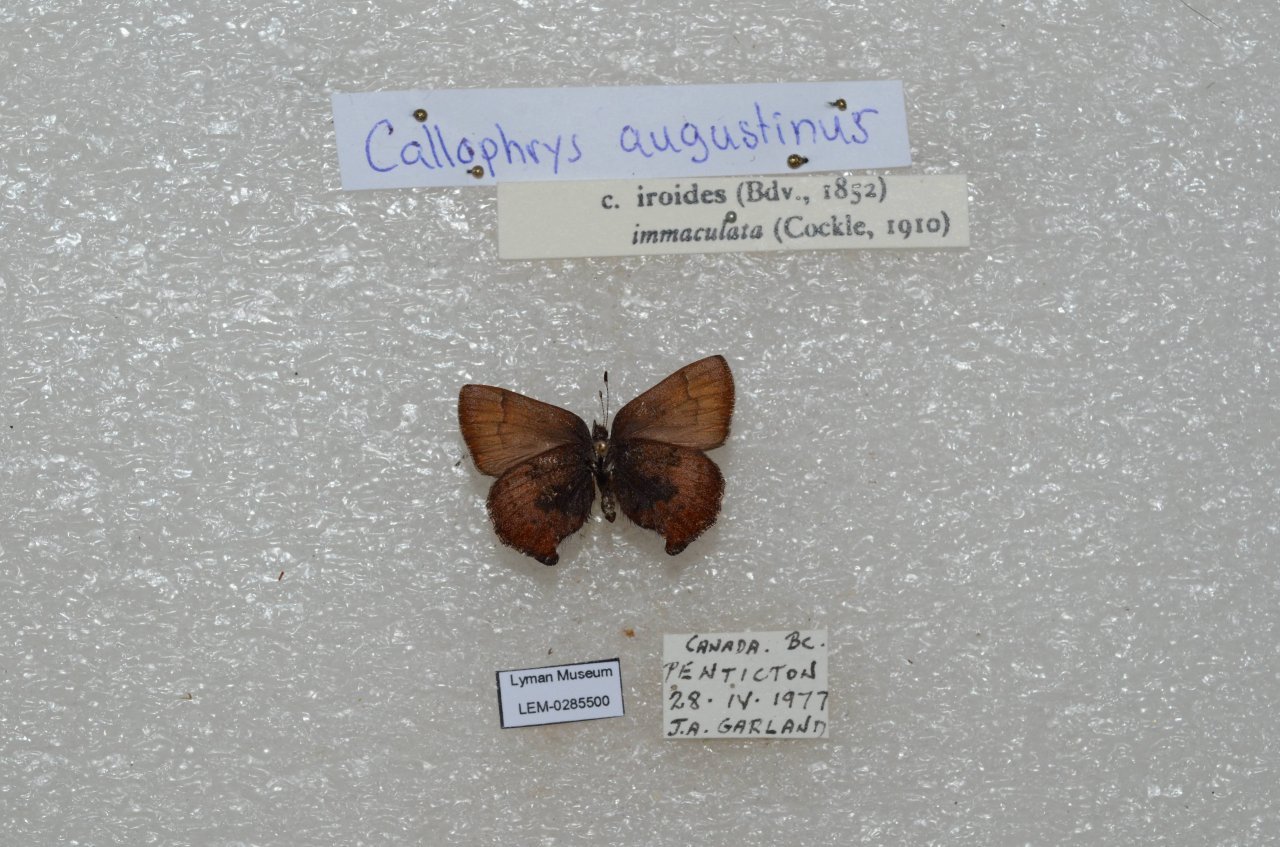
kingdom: Animalia
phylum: Arthropoda
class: Insecta
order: Lepidoptera
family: Lycaenidae
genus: Incisalia
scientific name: Incisalia irioides
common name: Brown Elfin
